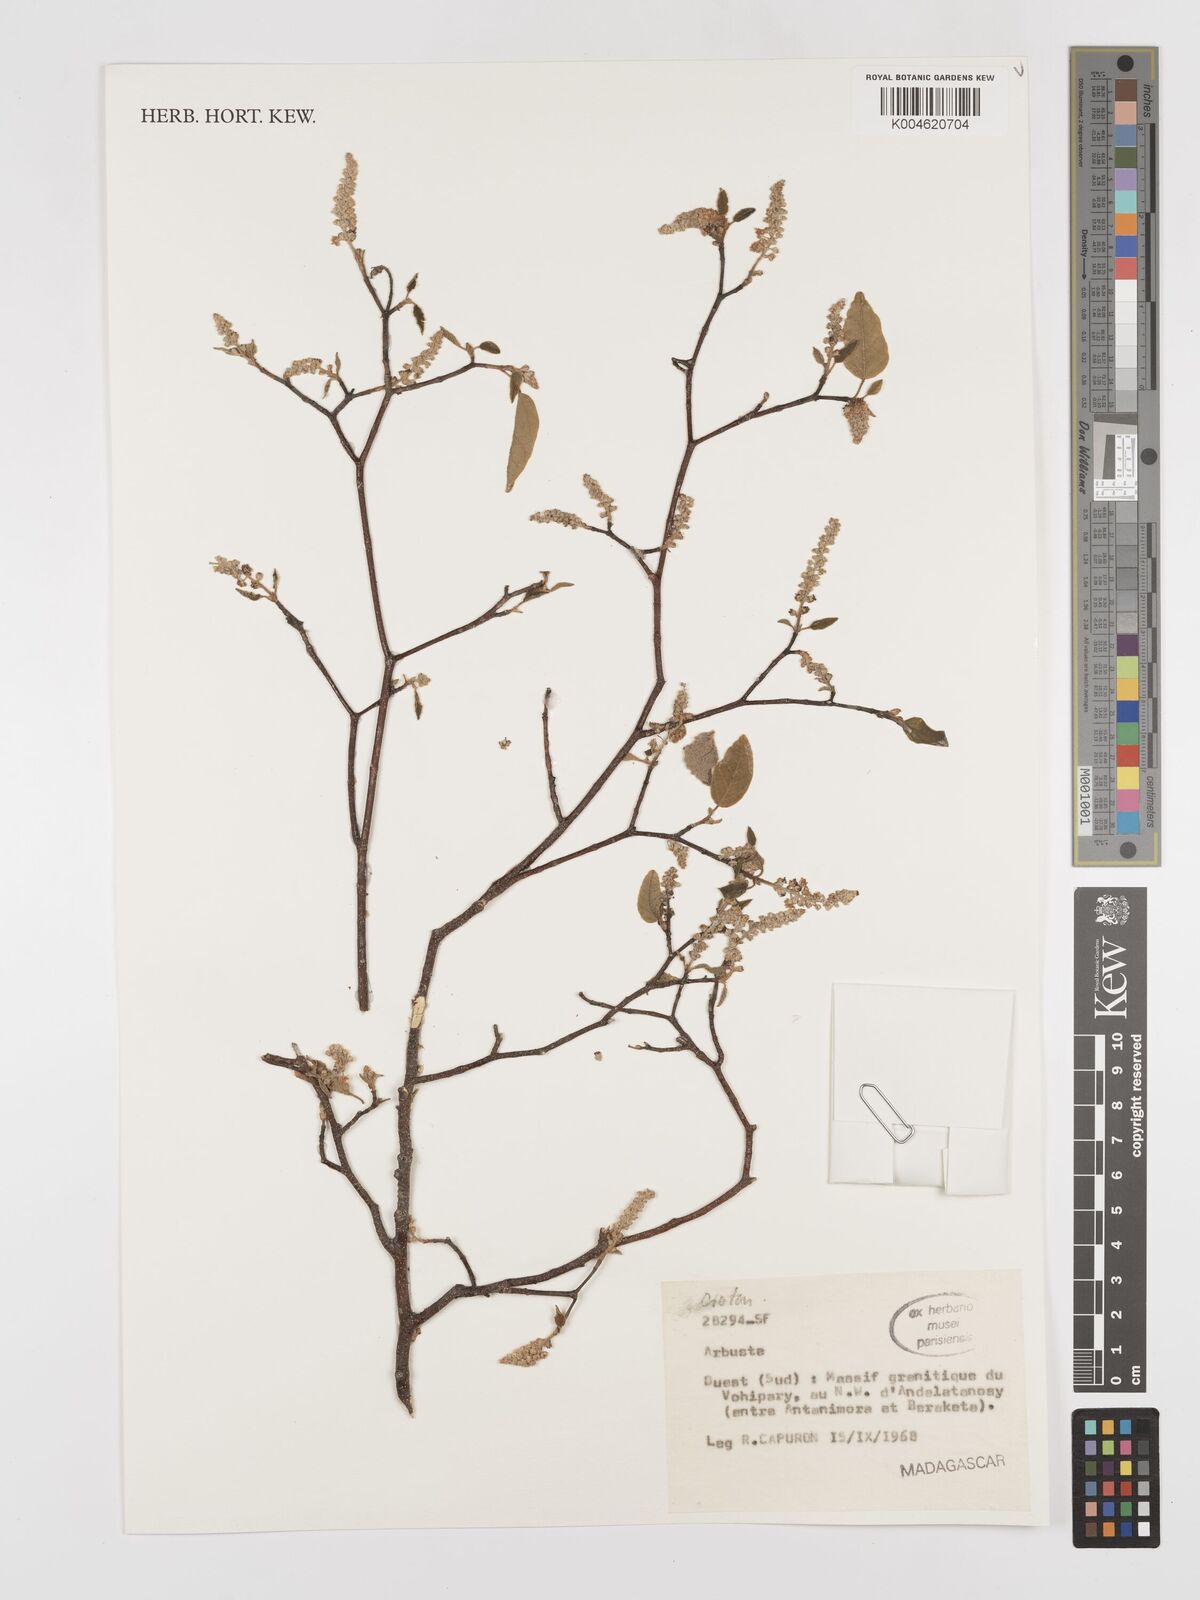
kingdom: Plantae
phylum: Tracheophyta
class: Magnoliopsida
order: Malpighiales
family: Euphorbiaceae
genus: Croton
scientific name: Croton
